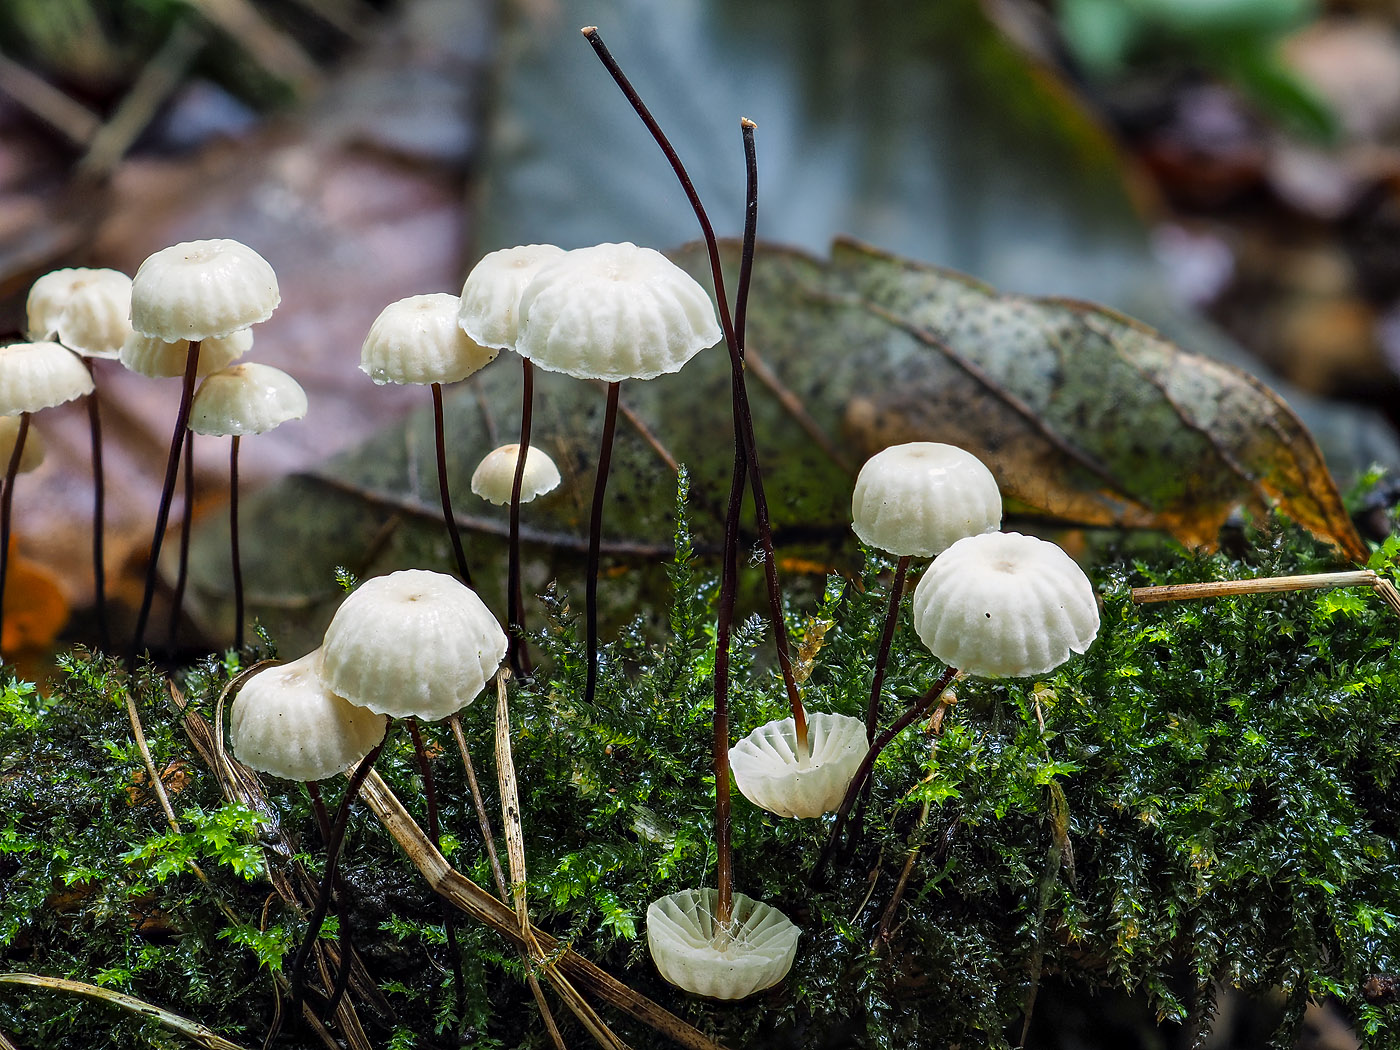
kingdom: Fungi
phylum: Basidiomycota
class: Agaricomycetes
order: Agaricales
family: Marasmiaceae
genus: Marasmius
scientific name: Marasmius rotula
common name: hjul-bruskhat
